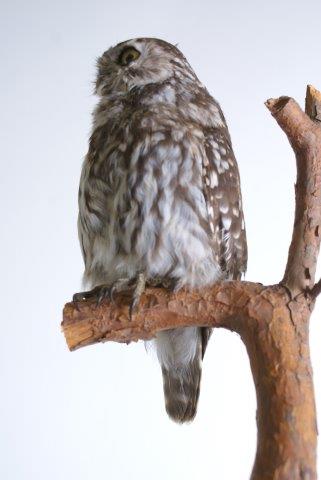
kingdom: Animalia
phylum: Chordata
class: Aves
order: Strigiformes
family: Strigidae
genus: Athene
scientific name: Athene noctua
